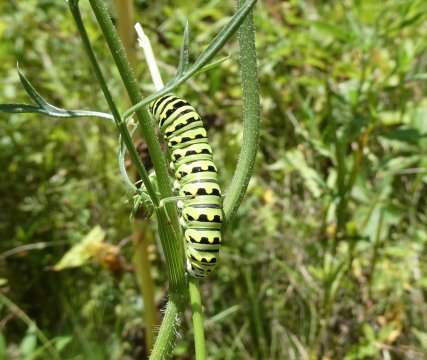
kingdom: Animalia
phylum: Arthropoda
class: Insecta
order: Lepidoptera
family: Papilionidae
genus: Papilio
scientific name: Papilio polyxenes
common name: Black Swallowtail
